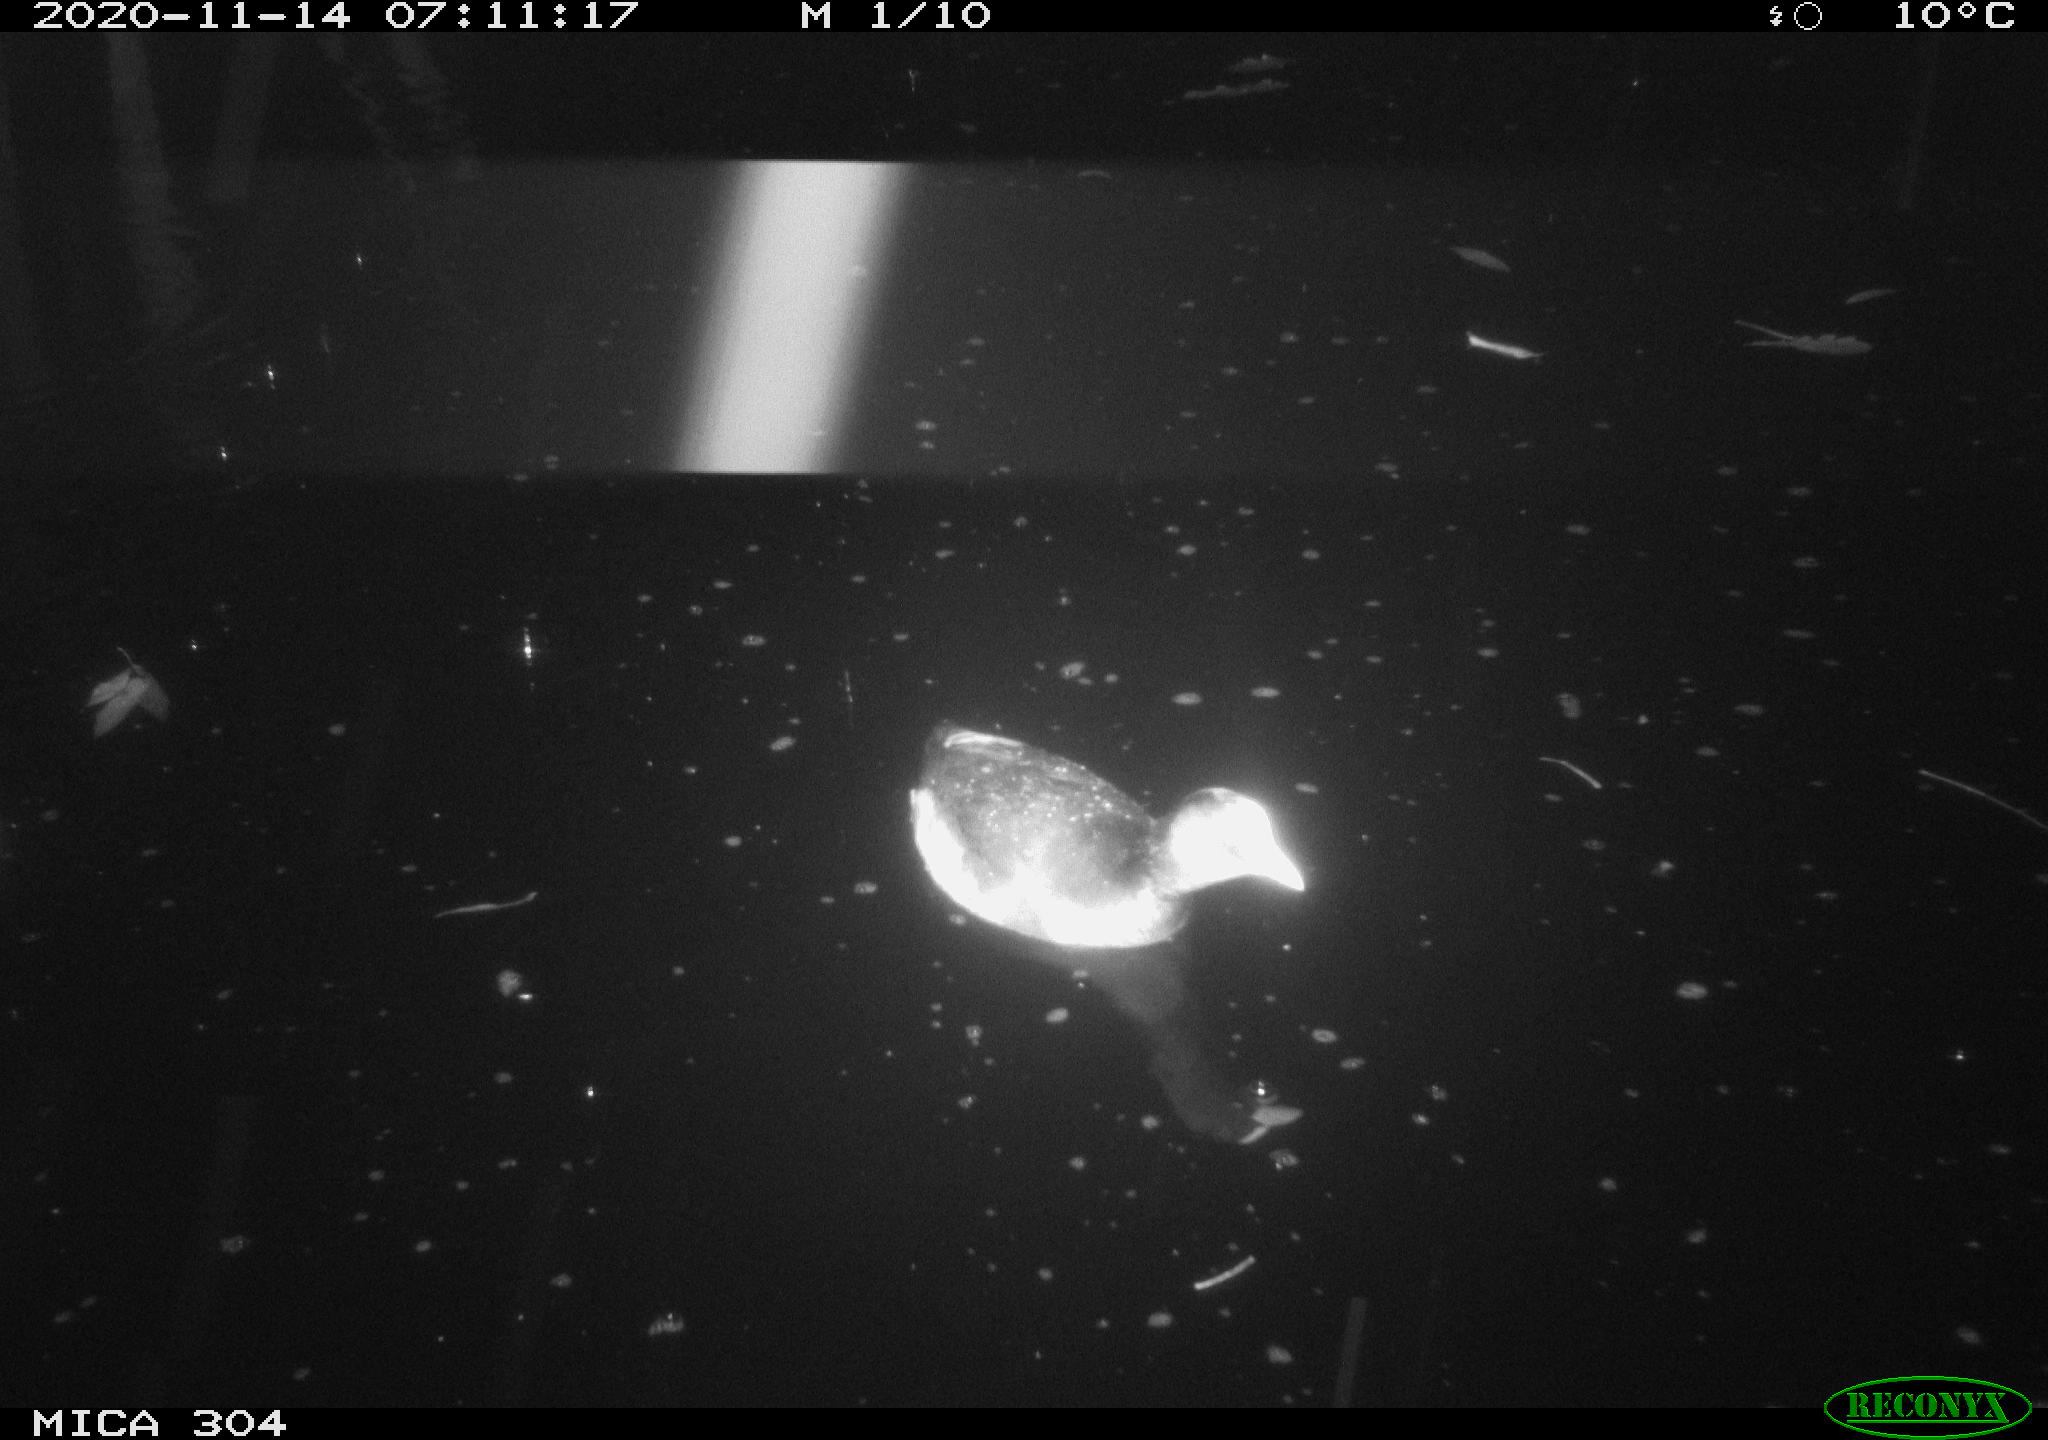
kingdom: Animalia
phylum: Chordata
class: Aves
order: Gruiformes
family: Rallidae
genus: Gallinula
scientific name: Gallinula chloropus
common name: Common moorhen
